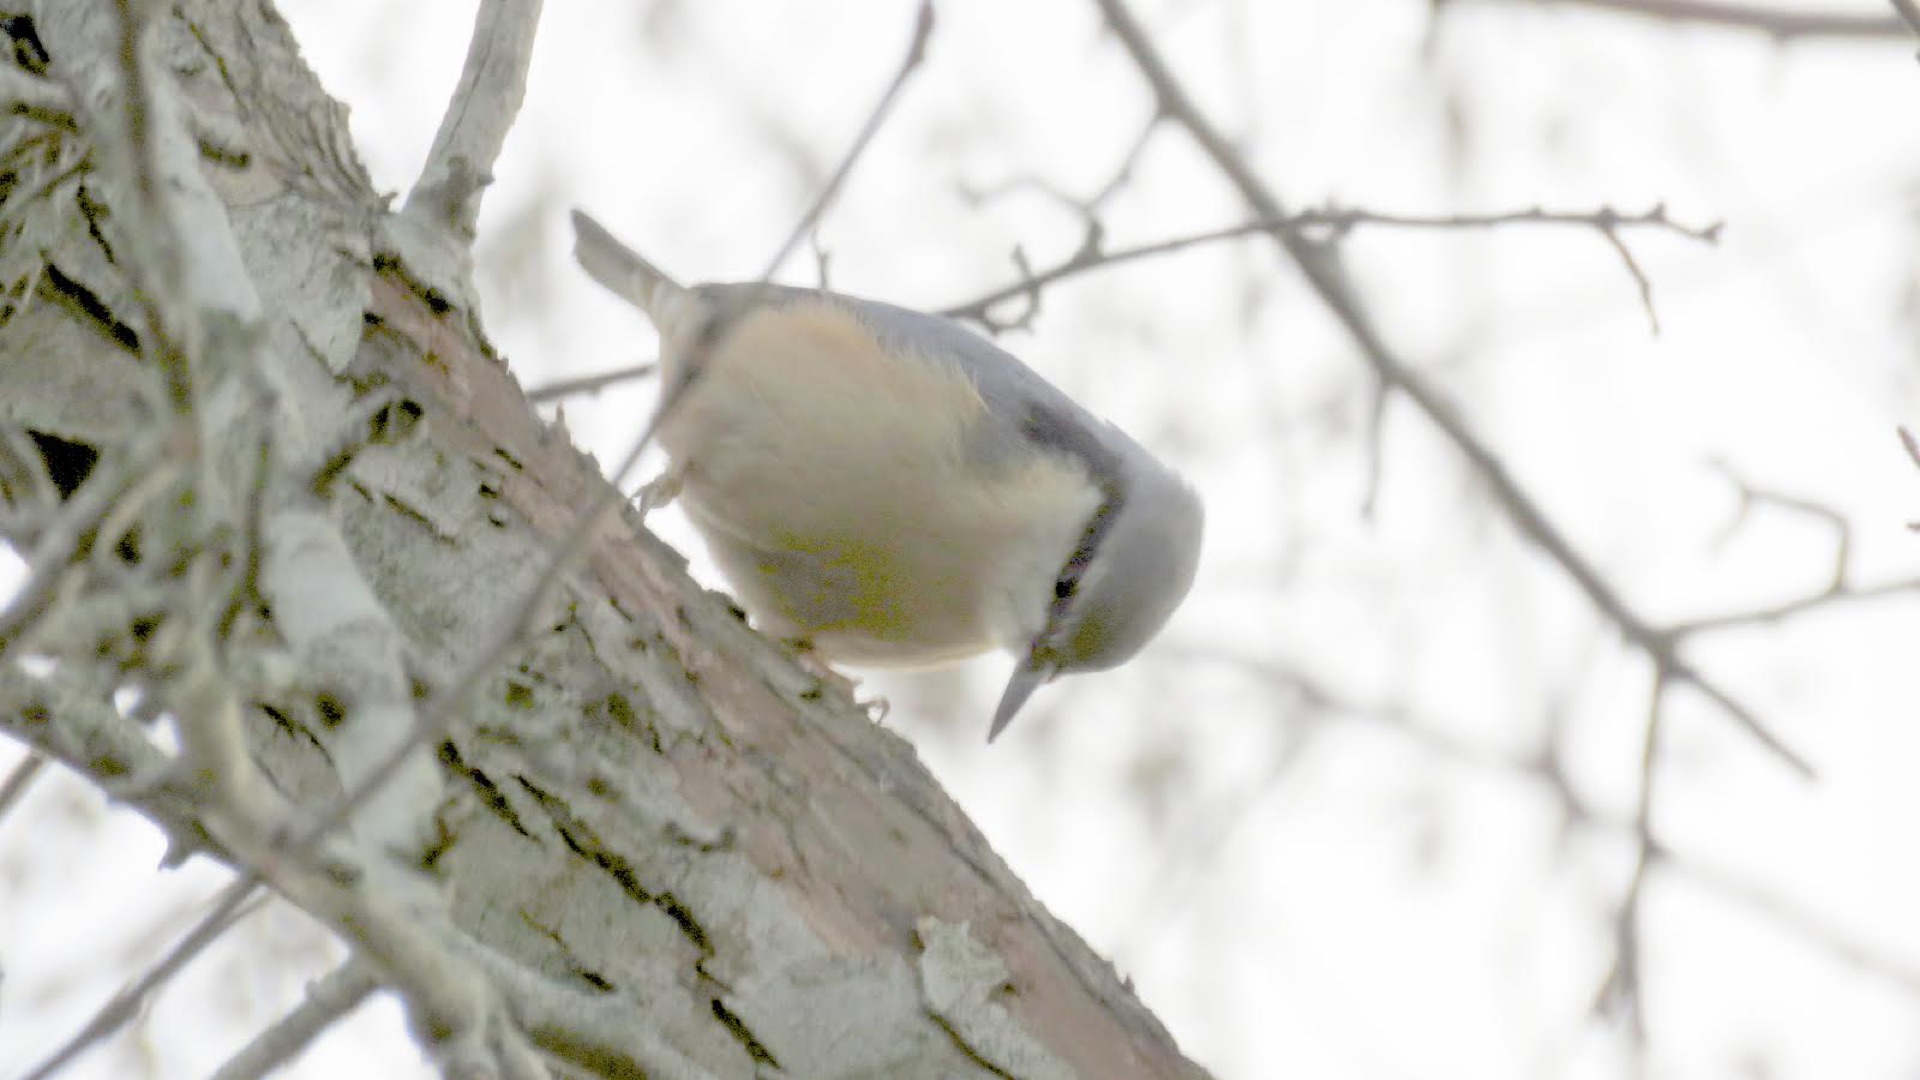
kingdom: Animalia
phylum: Chordata
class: Aves
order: Passeriformes
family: Sittidae
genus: Sitta
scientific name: Sitta europaea
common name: Spætmejse
